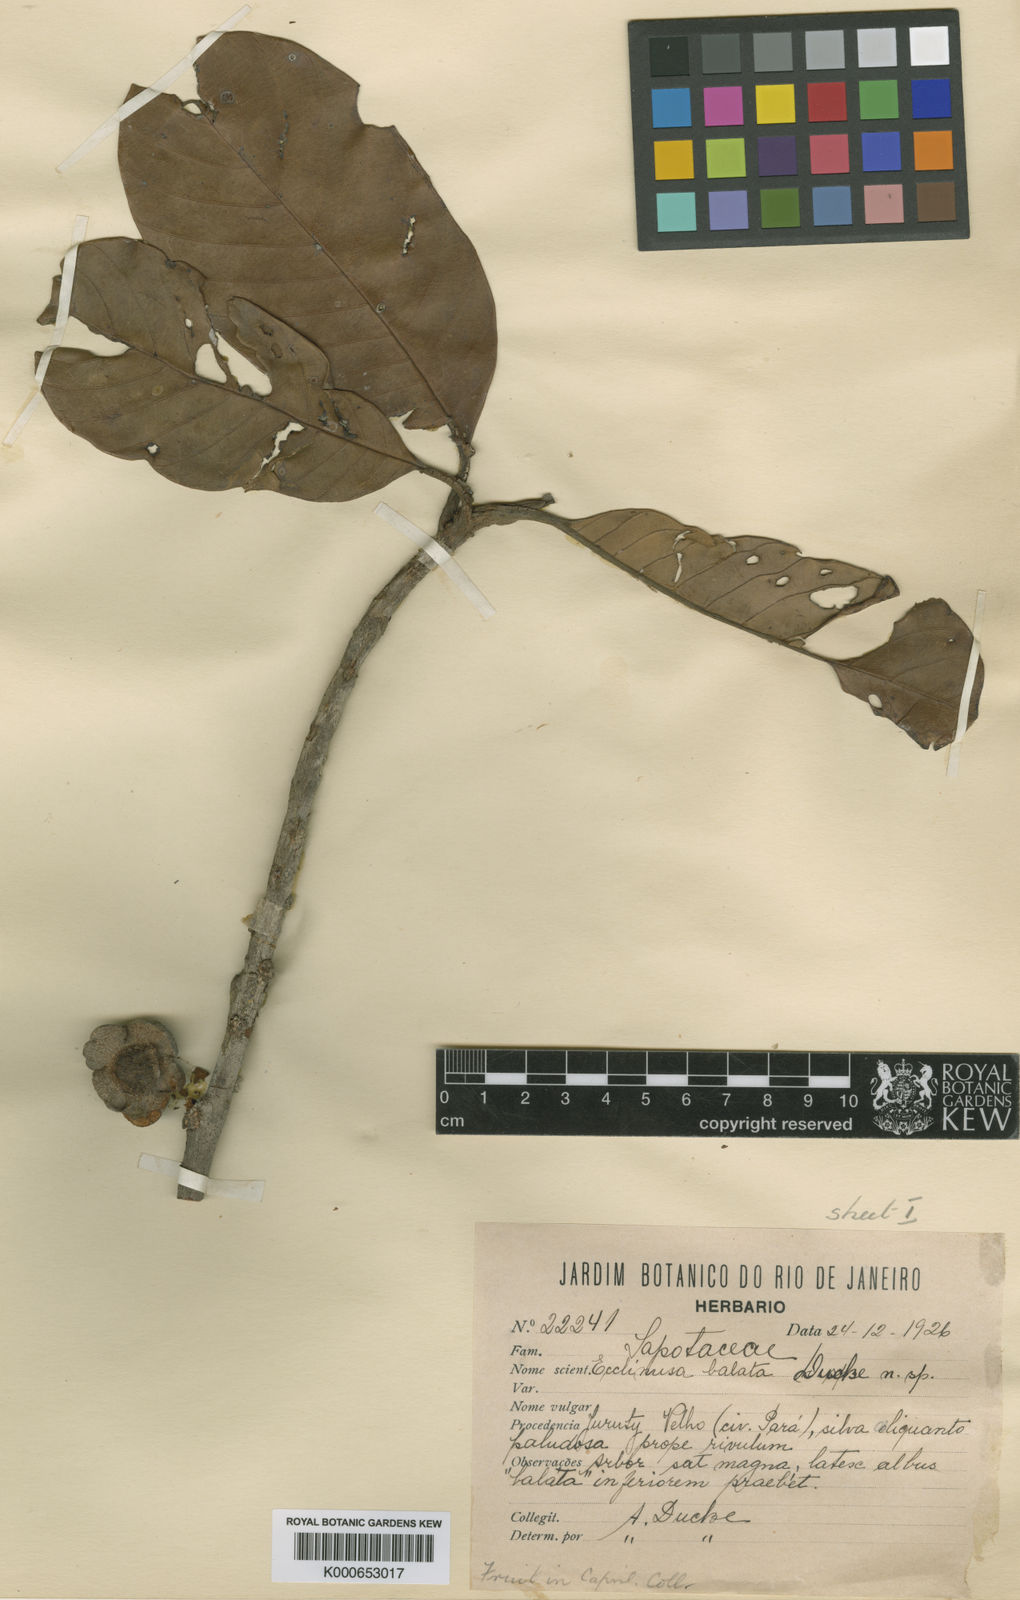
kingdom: Plantae
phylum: Tracheophyta
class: Magnoliopsida
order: Ericales
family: Sapotaceae
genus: Chrysophyllum
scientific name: Chrysophyllum sanguinolentum
